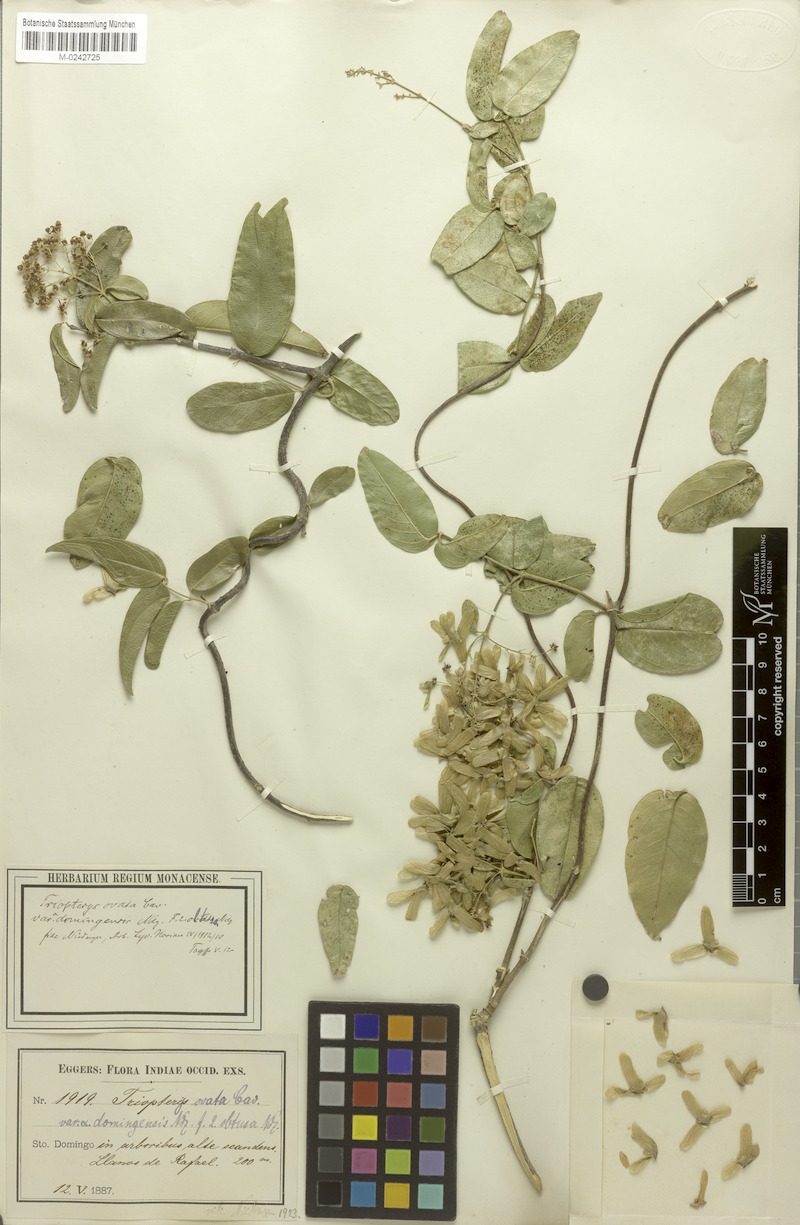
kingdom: Plantae
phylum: Tracheophyta
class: Magnoliopsida
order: Malpighiales
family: Malpighiaceae
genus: Mascagnia
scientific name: Mascagnia paniculata
